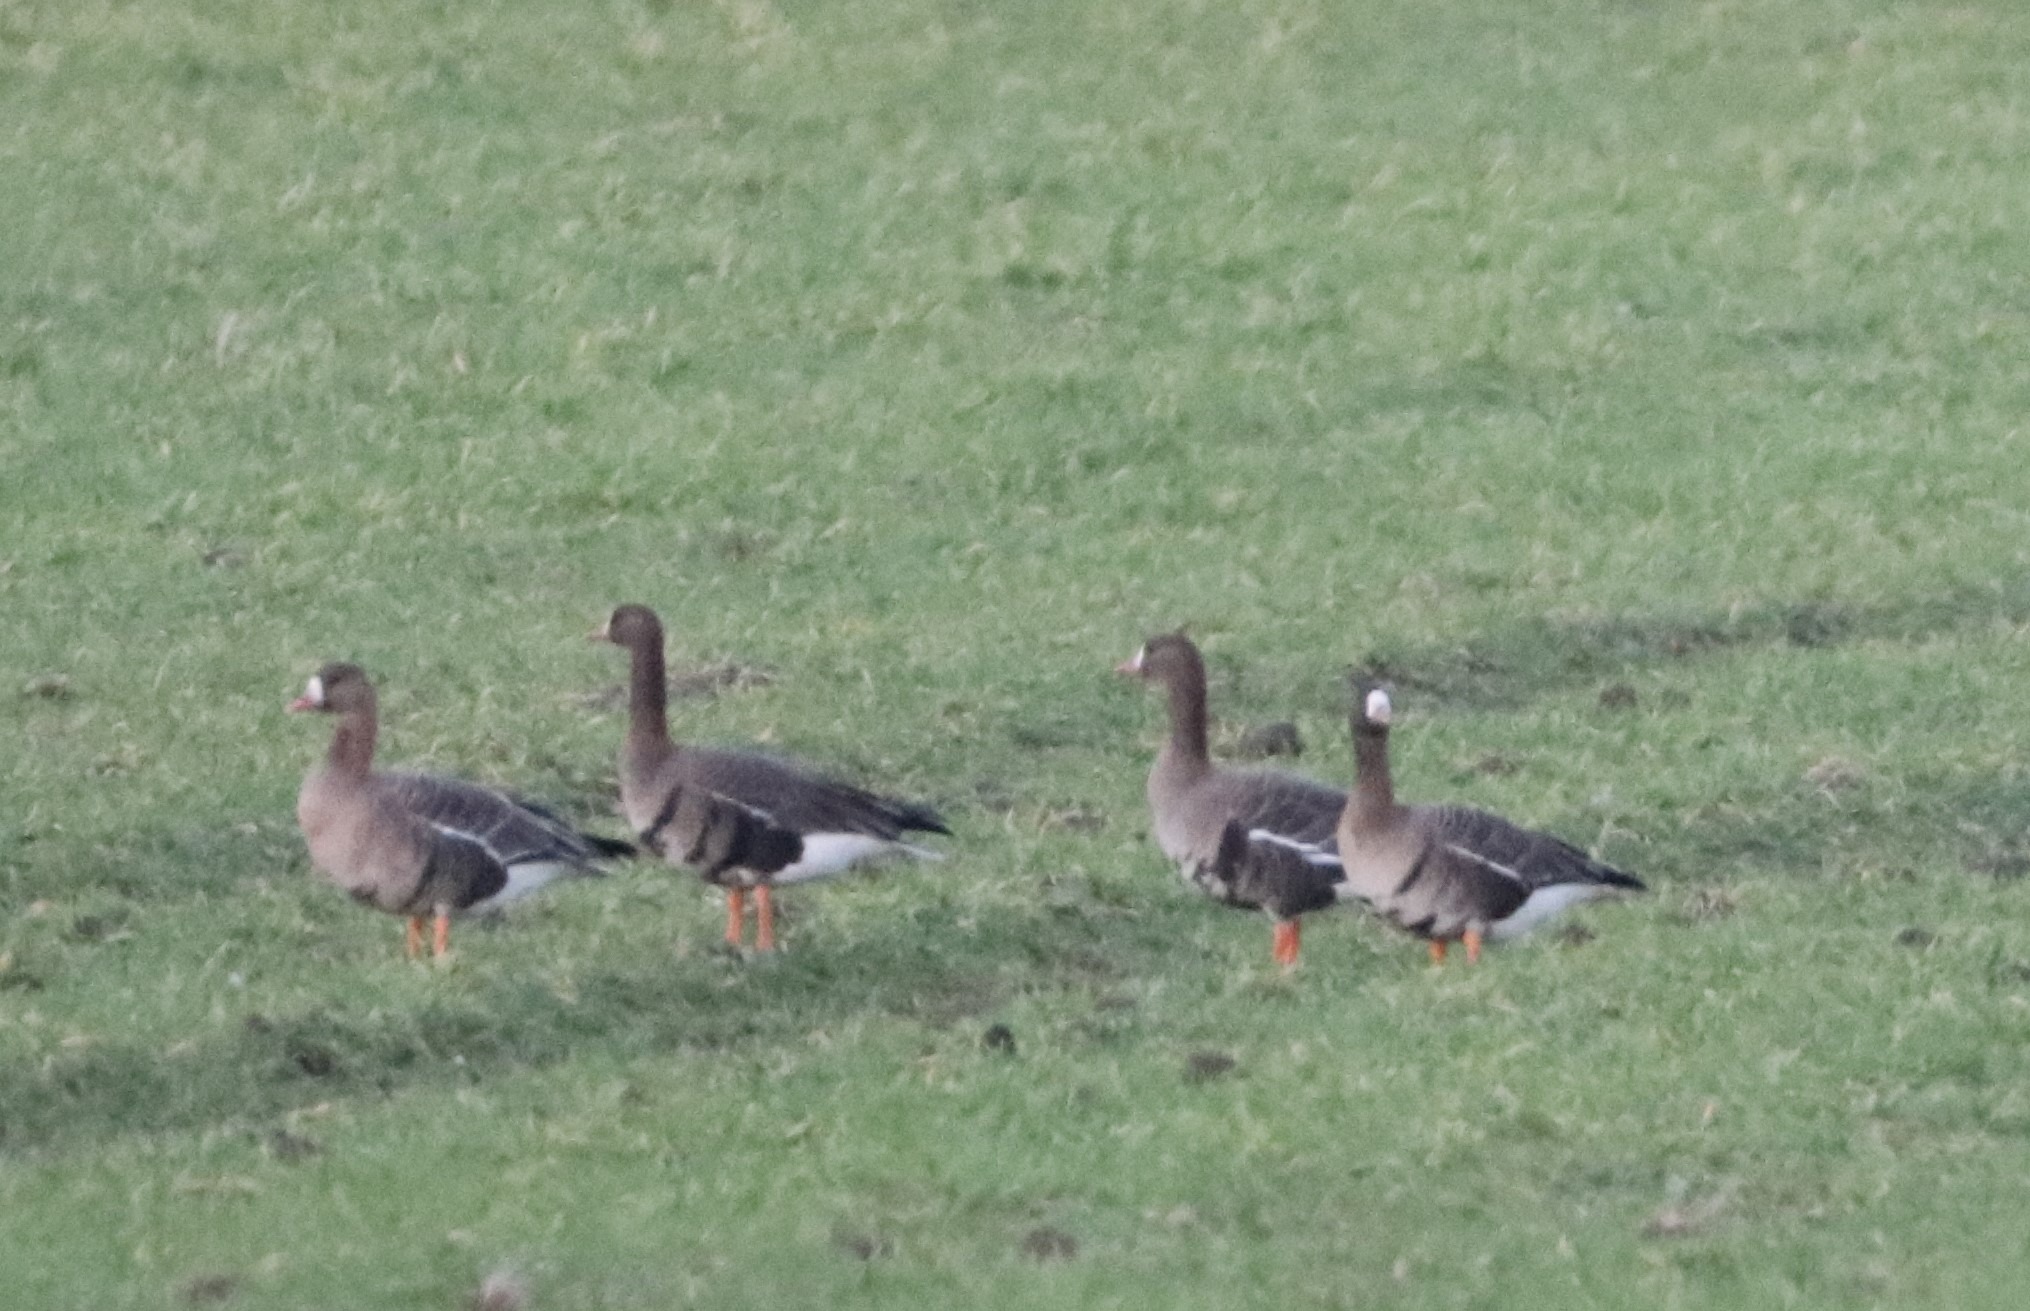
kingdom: Animalia
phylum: Chordata
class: Aves
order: Anseriformes
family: Anatidae
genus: Anser
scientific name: Anser albifrons
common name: Blisgås
